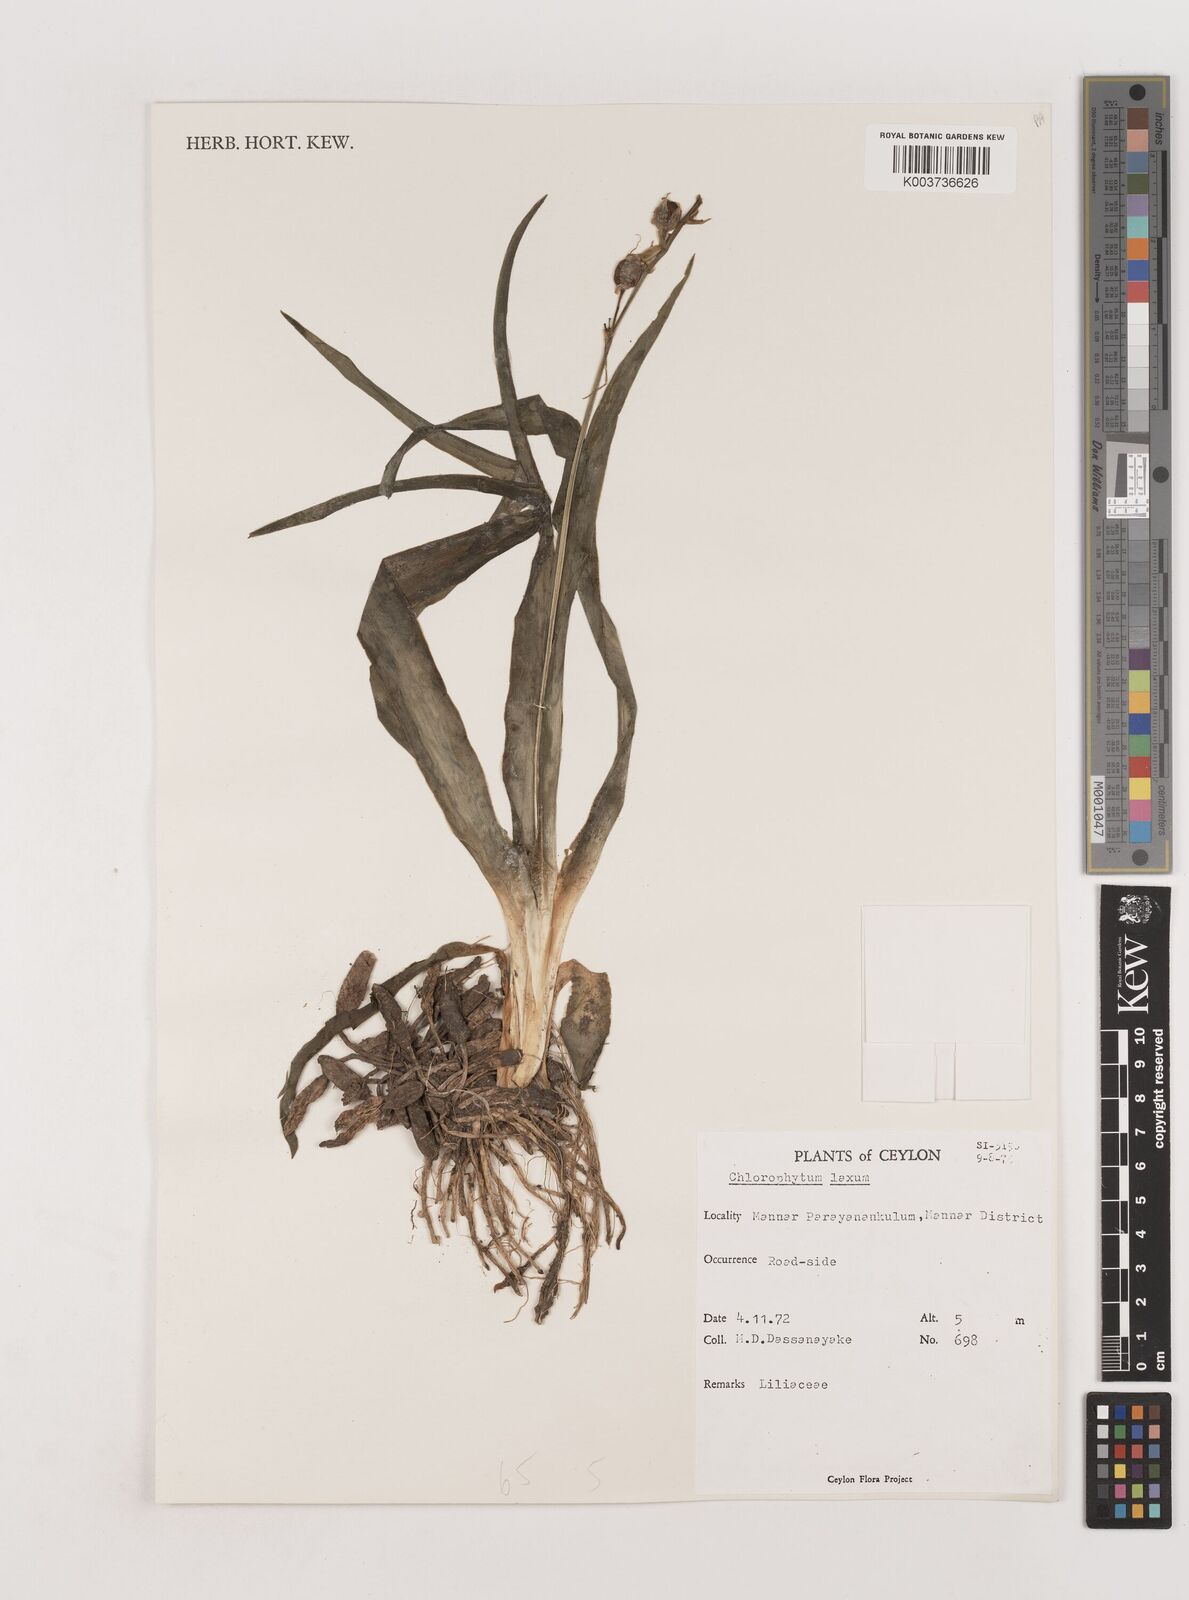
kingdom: Plantae
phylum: Tracheophyta
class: Liliopsida
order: Asparagales
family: Asparagaceae
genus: Chlorophytum
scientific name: Chlorophytum laxum
